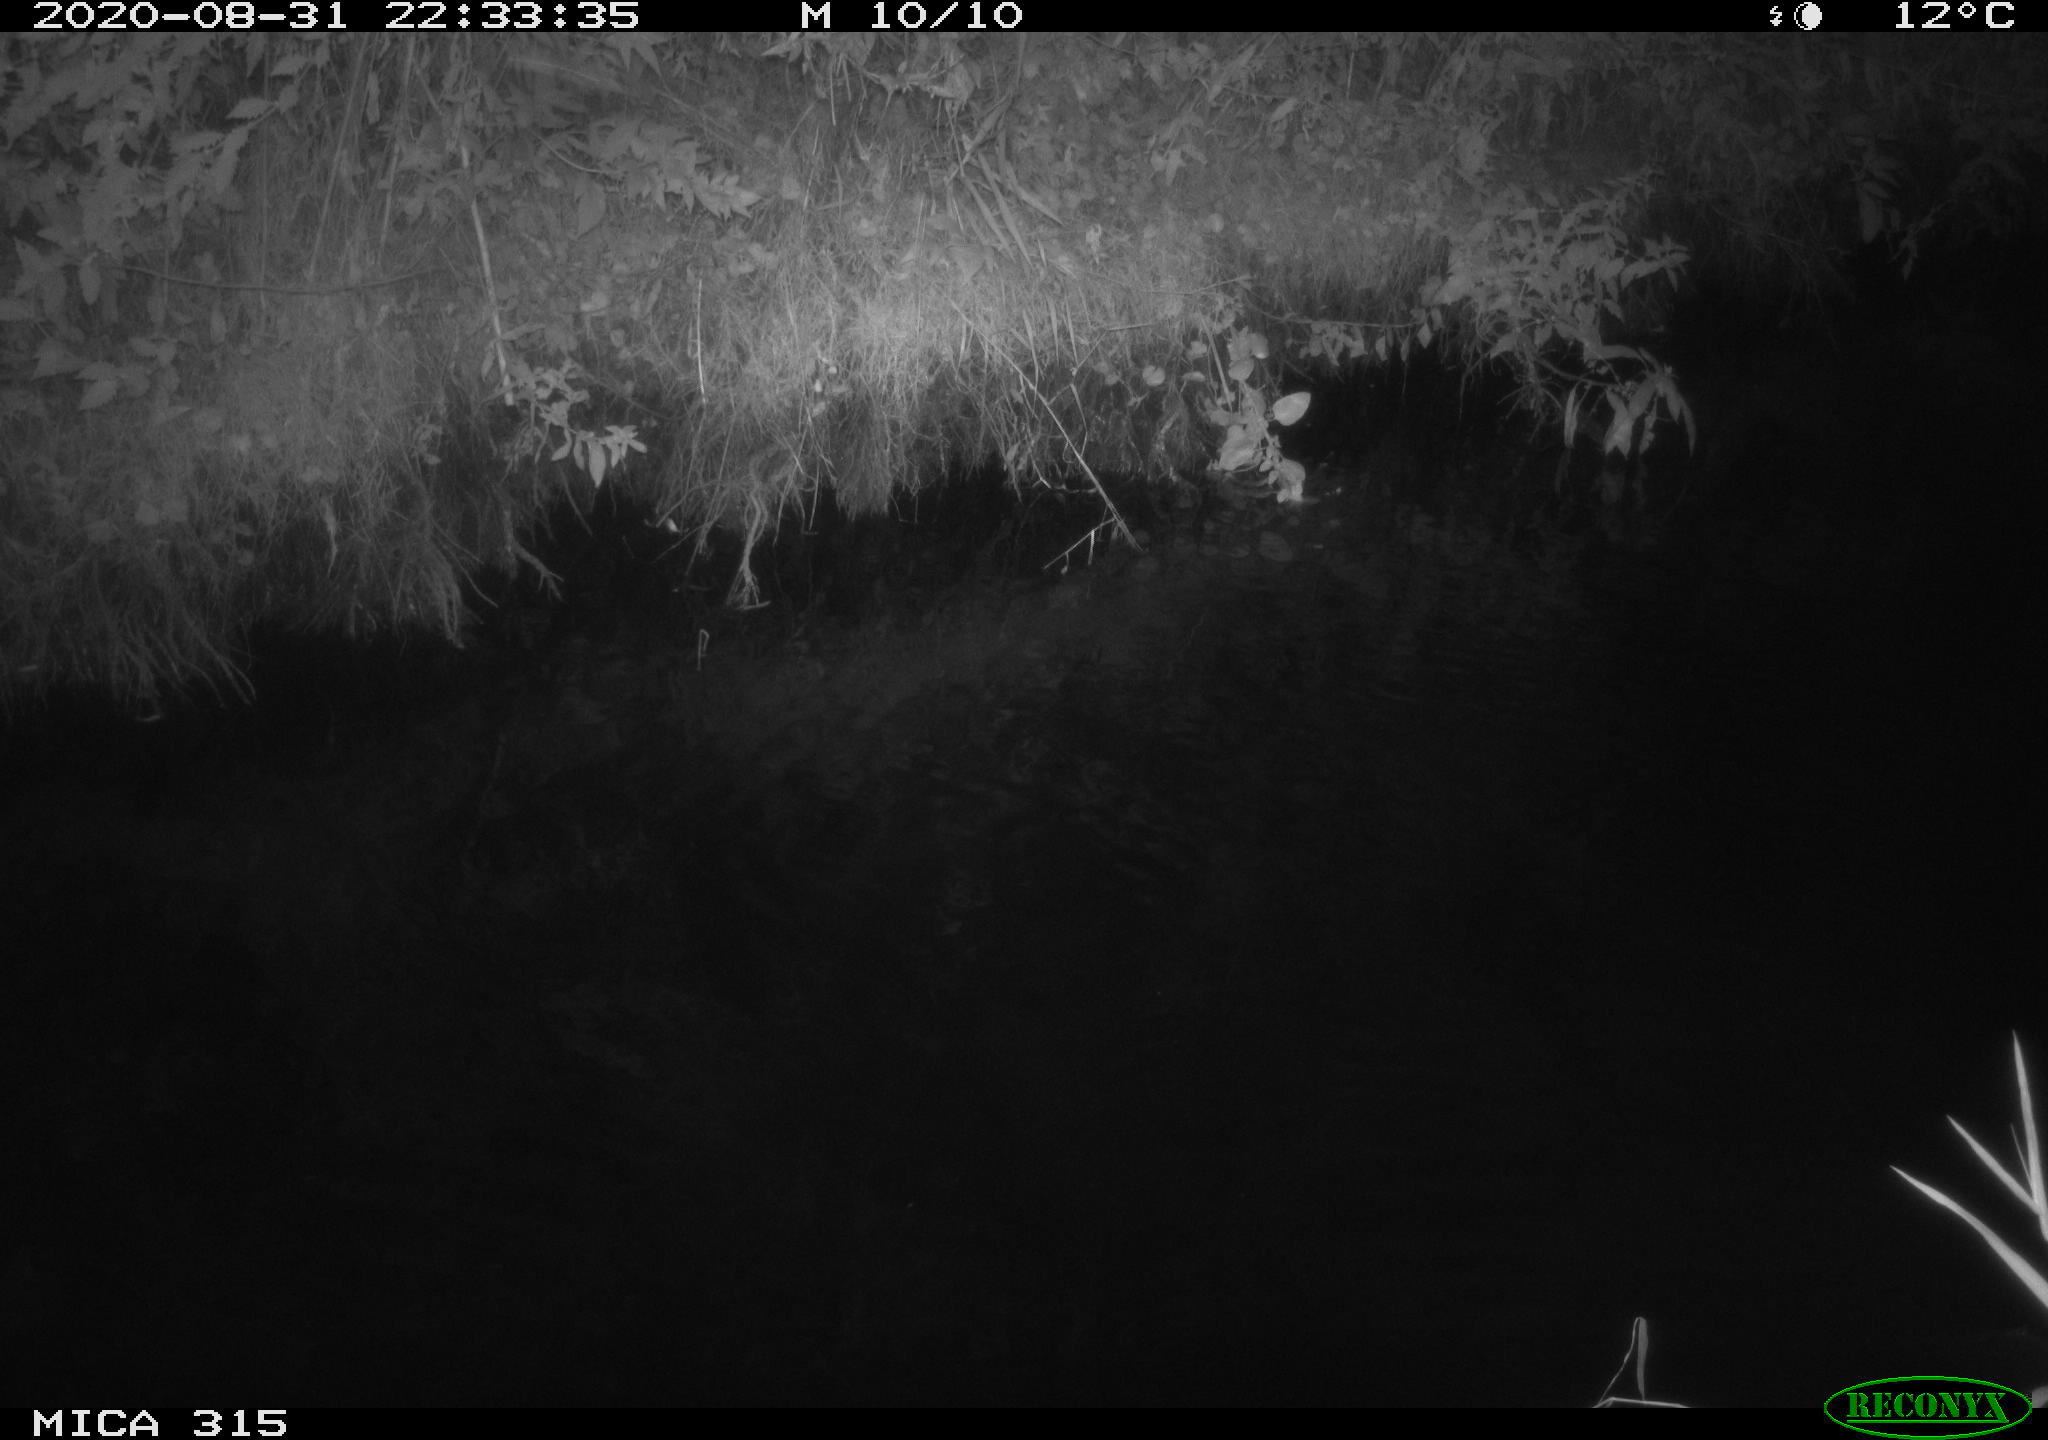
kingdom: Animalia
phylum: Chordata
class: Aves
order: Anseriformes
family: Anatidae
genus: Anas
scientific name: Anas platyrhynchos
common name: Mallard
